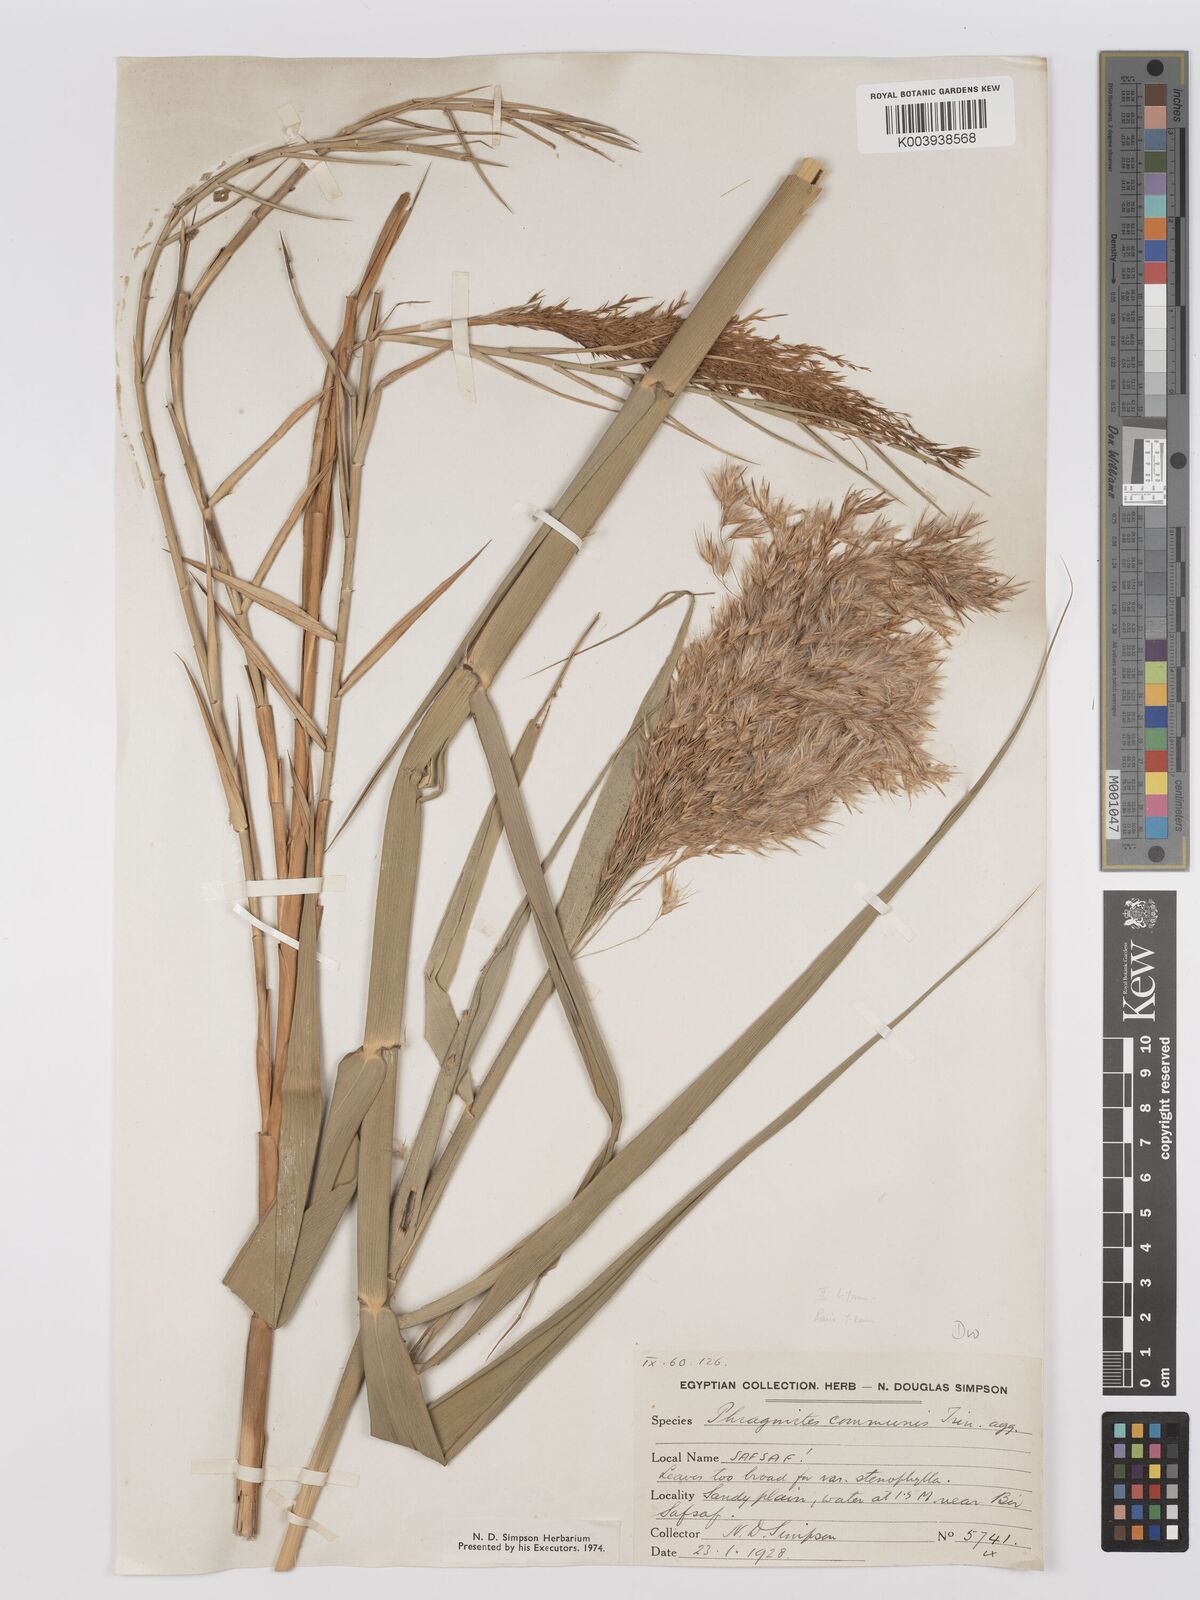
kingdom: Plantae
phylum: Tracheophyta
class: Liliopsida
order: Poales
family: Poaceae
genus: Phragmites
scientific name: Phragmites australis
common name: Common reed
